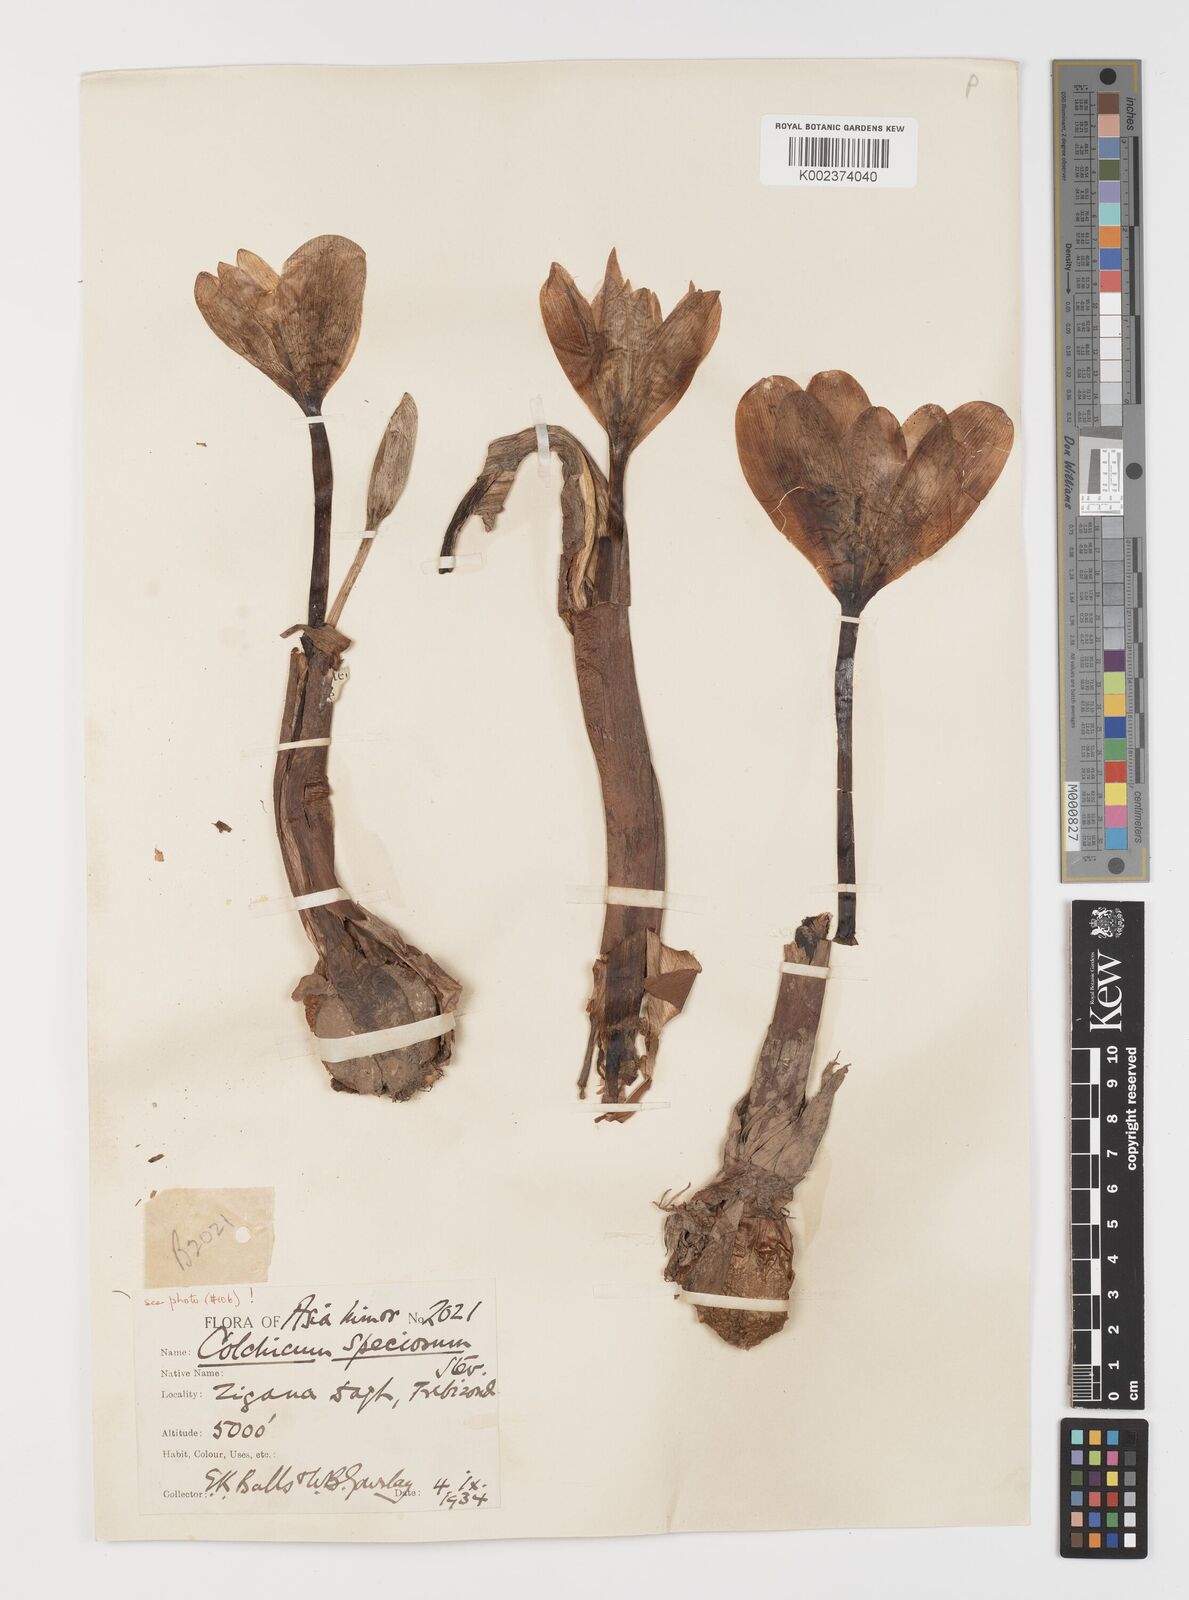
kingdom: Plantae
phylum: Tracheophyta
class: Liliopsida
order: Liliales
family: Colchicaceae
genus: Colchicum
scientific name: Colchicum speciosum
